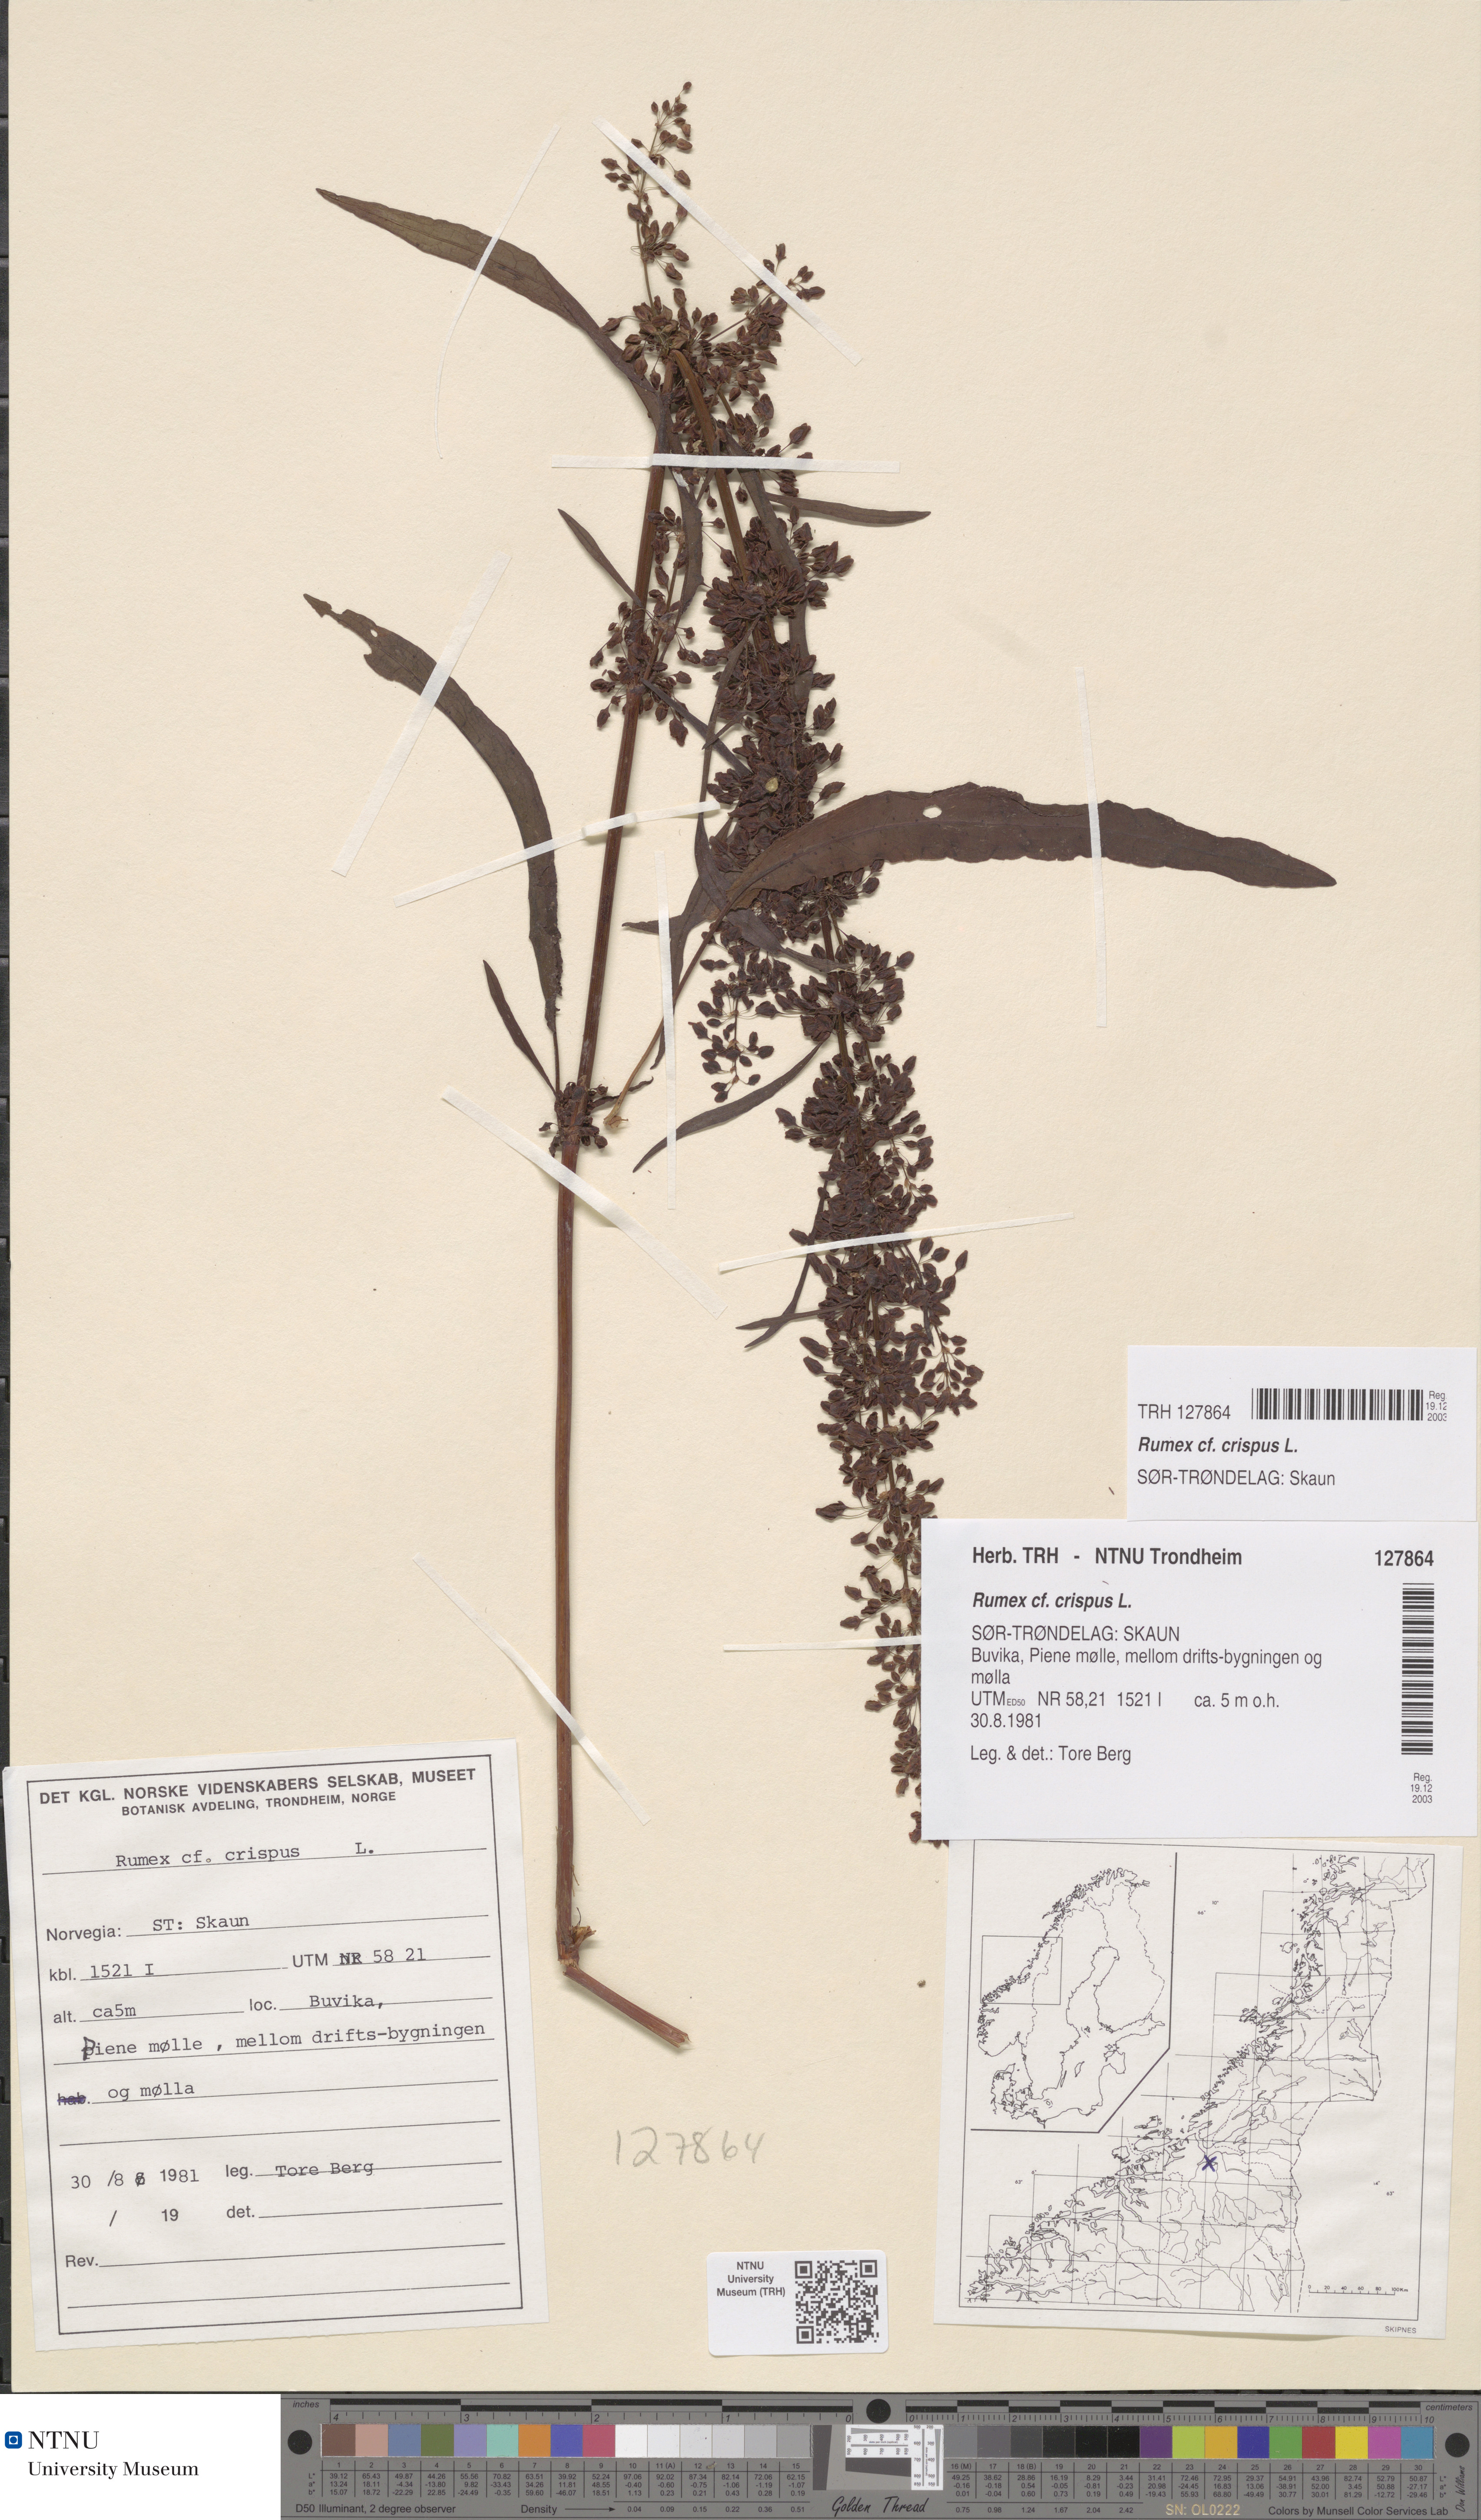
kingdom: Plantae
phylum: Tracheophyta
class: Magnoliopsida
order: Caryophyllales
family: Polygonaceae
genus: Rumex
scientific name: Rumex crispus
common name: Curled dock
